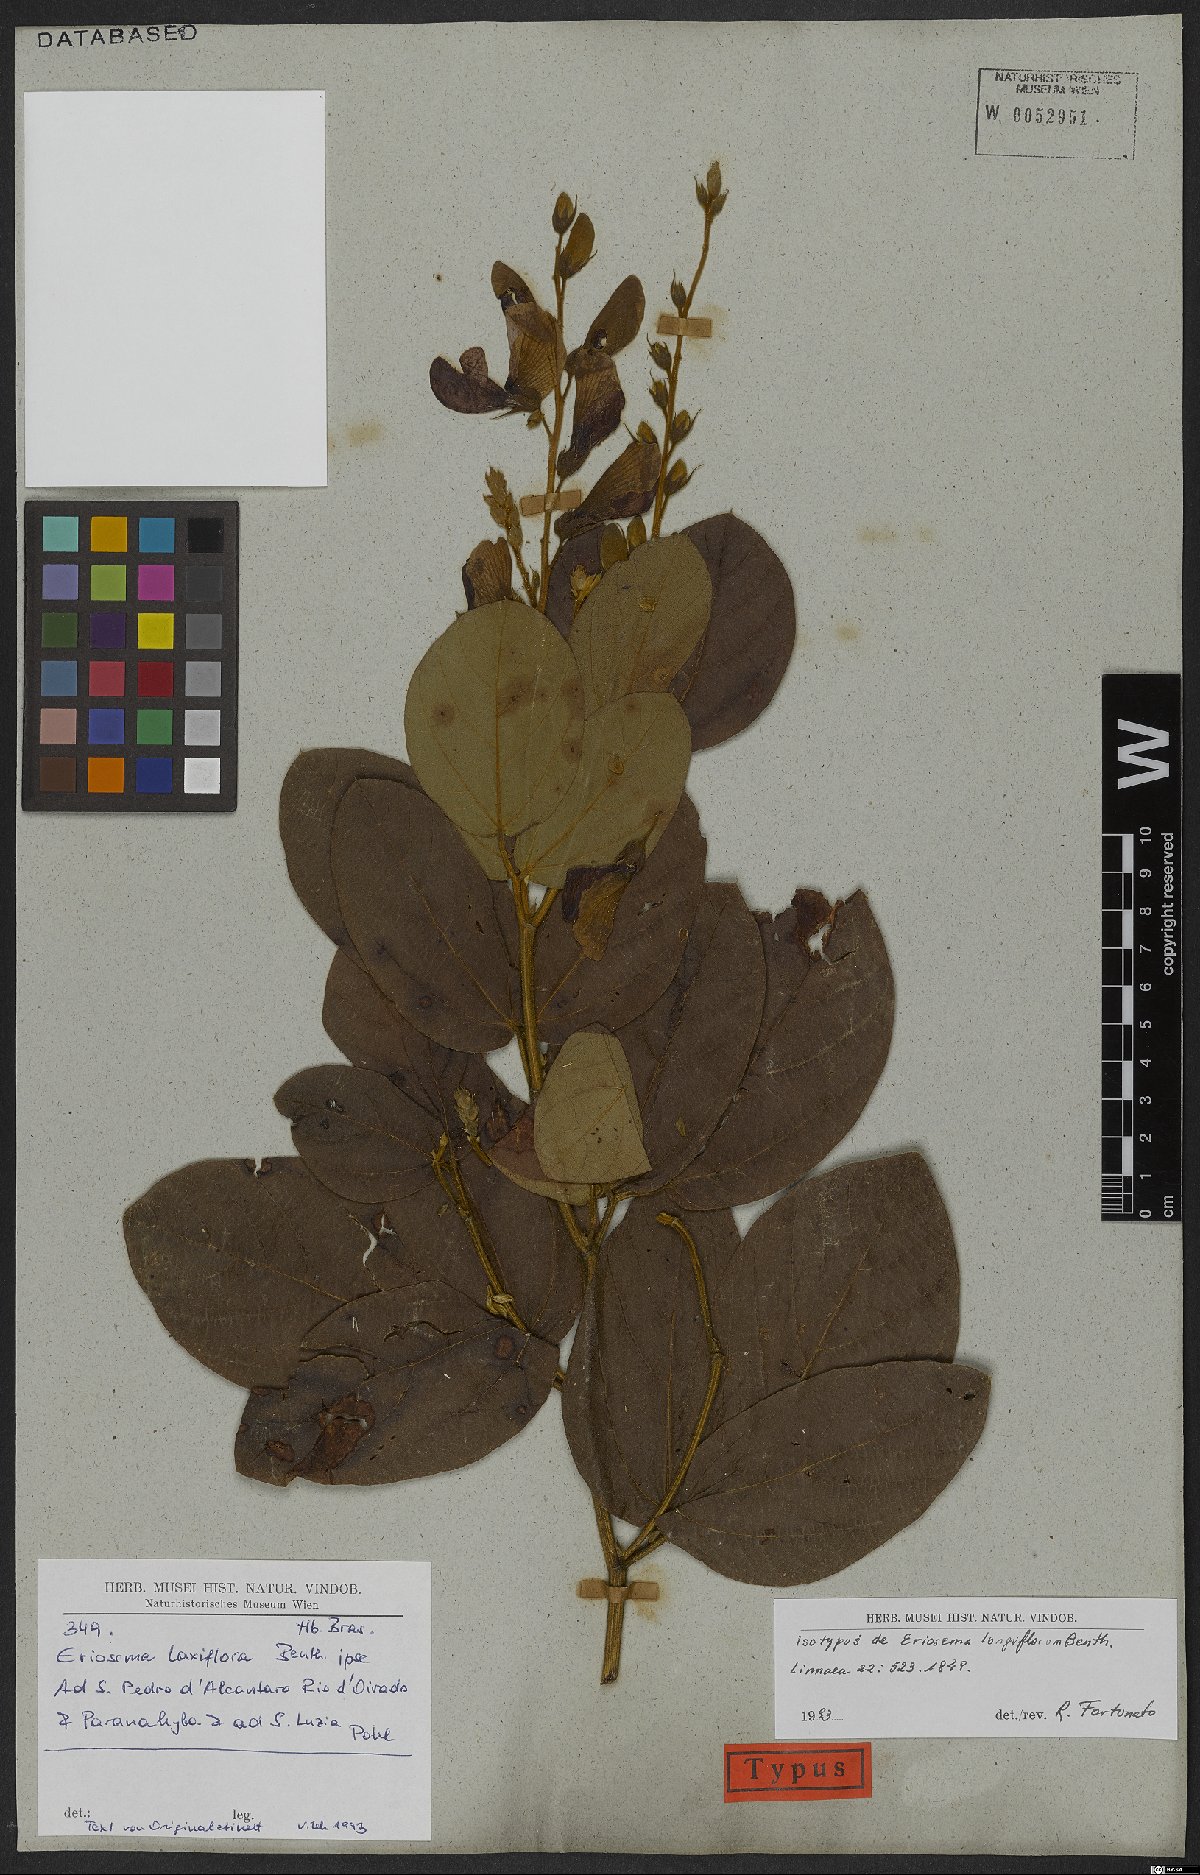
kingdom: Plantae
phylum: Tracheophyta
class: Magnoliopsida
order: Fabales
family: Fabaceae
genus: Eriosema
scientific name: Eriosema longiflorum
